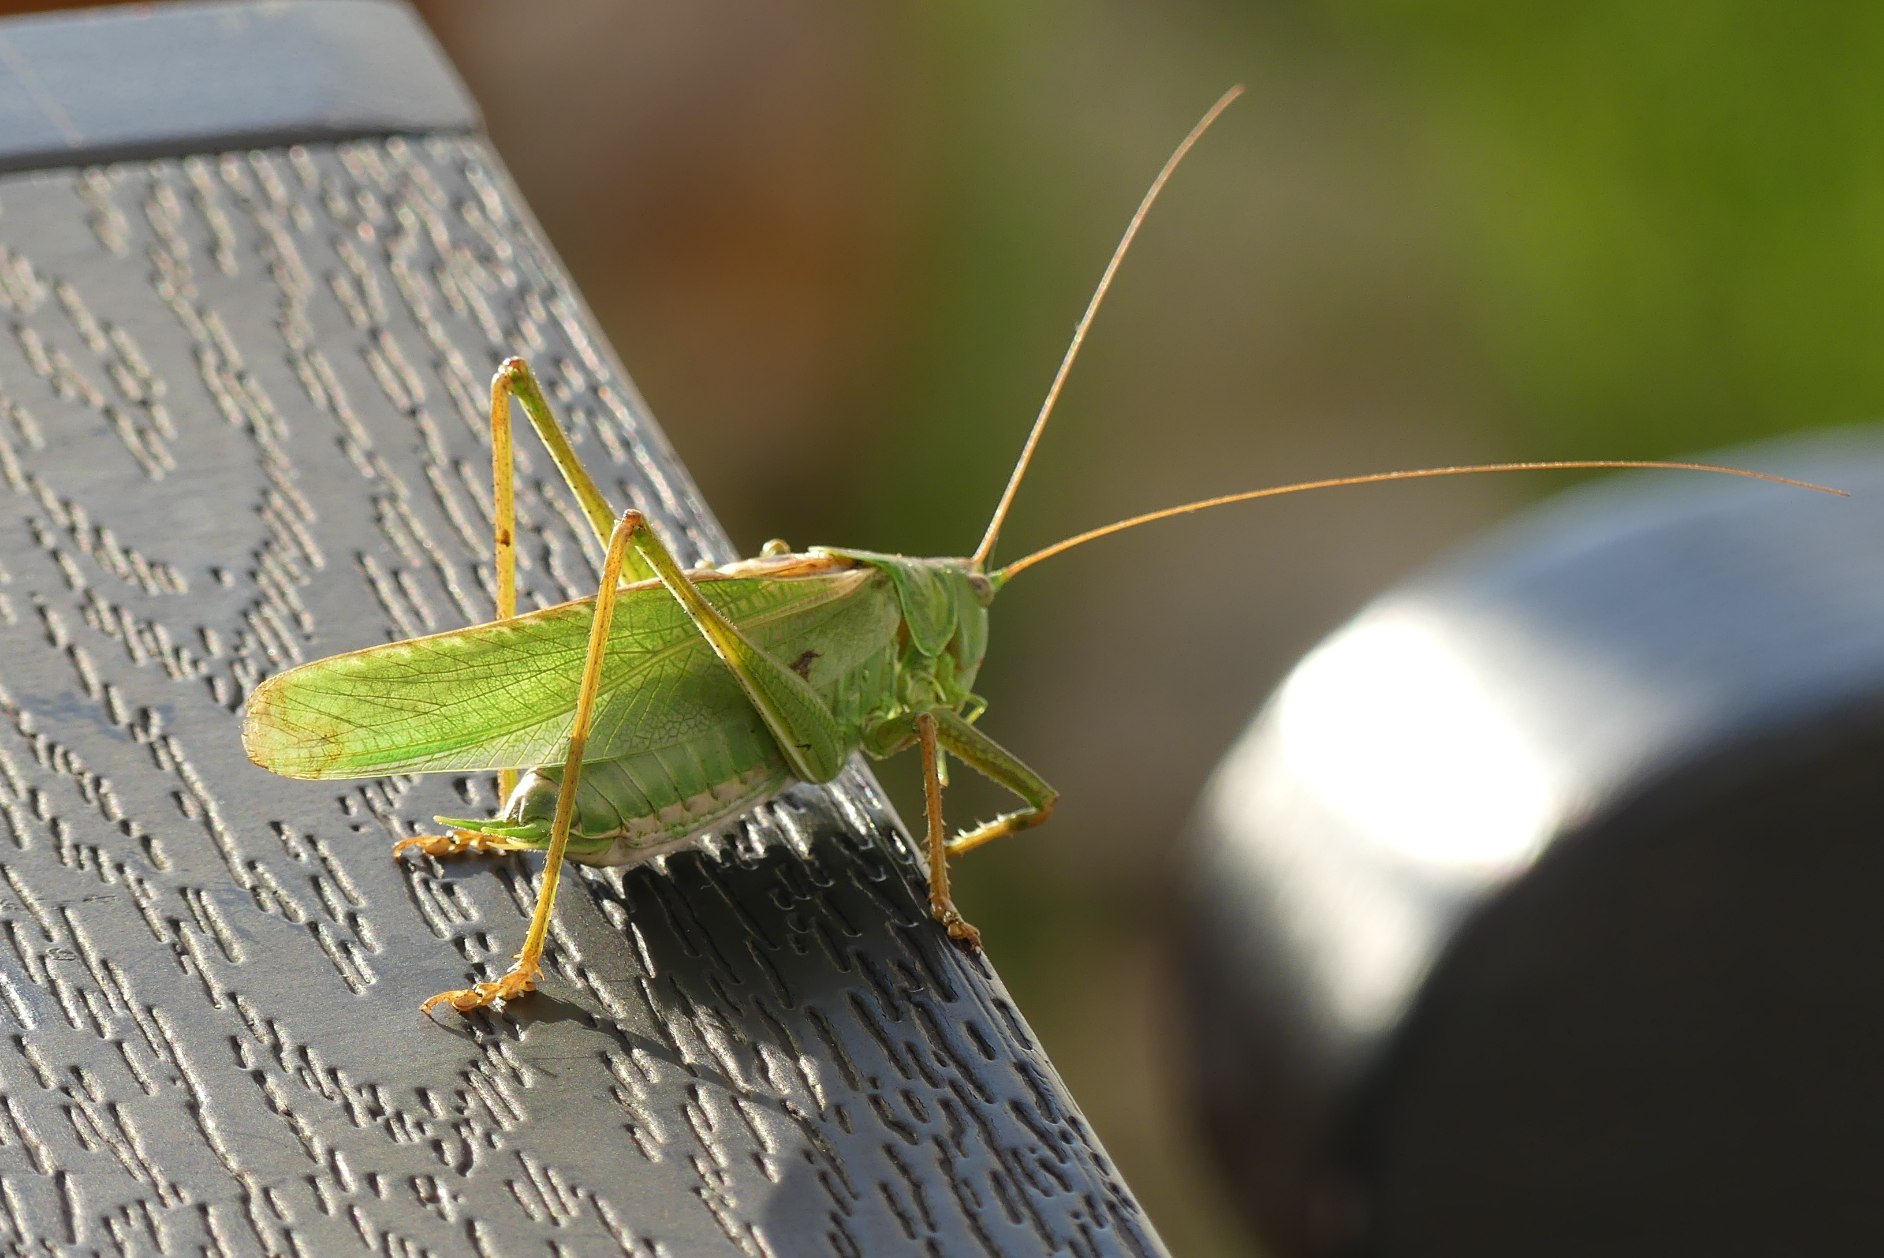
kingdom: Animalia
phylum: Arthropoda
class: Insecta
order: Orthoptera
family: Tettigoniidae
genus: Tettigonia
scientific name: Tettigonia viridissima
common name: Stor grøn løvgræshoppe
